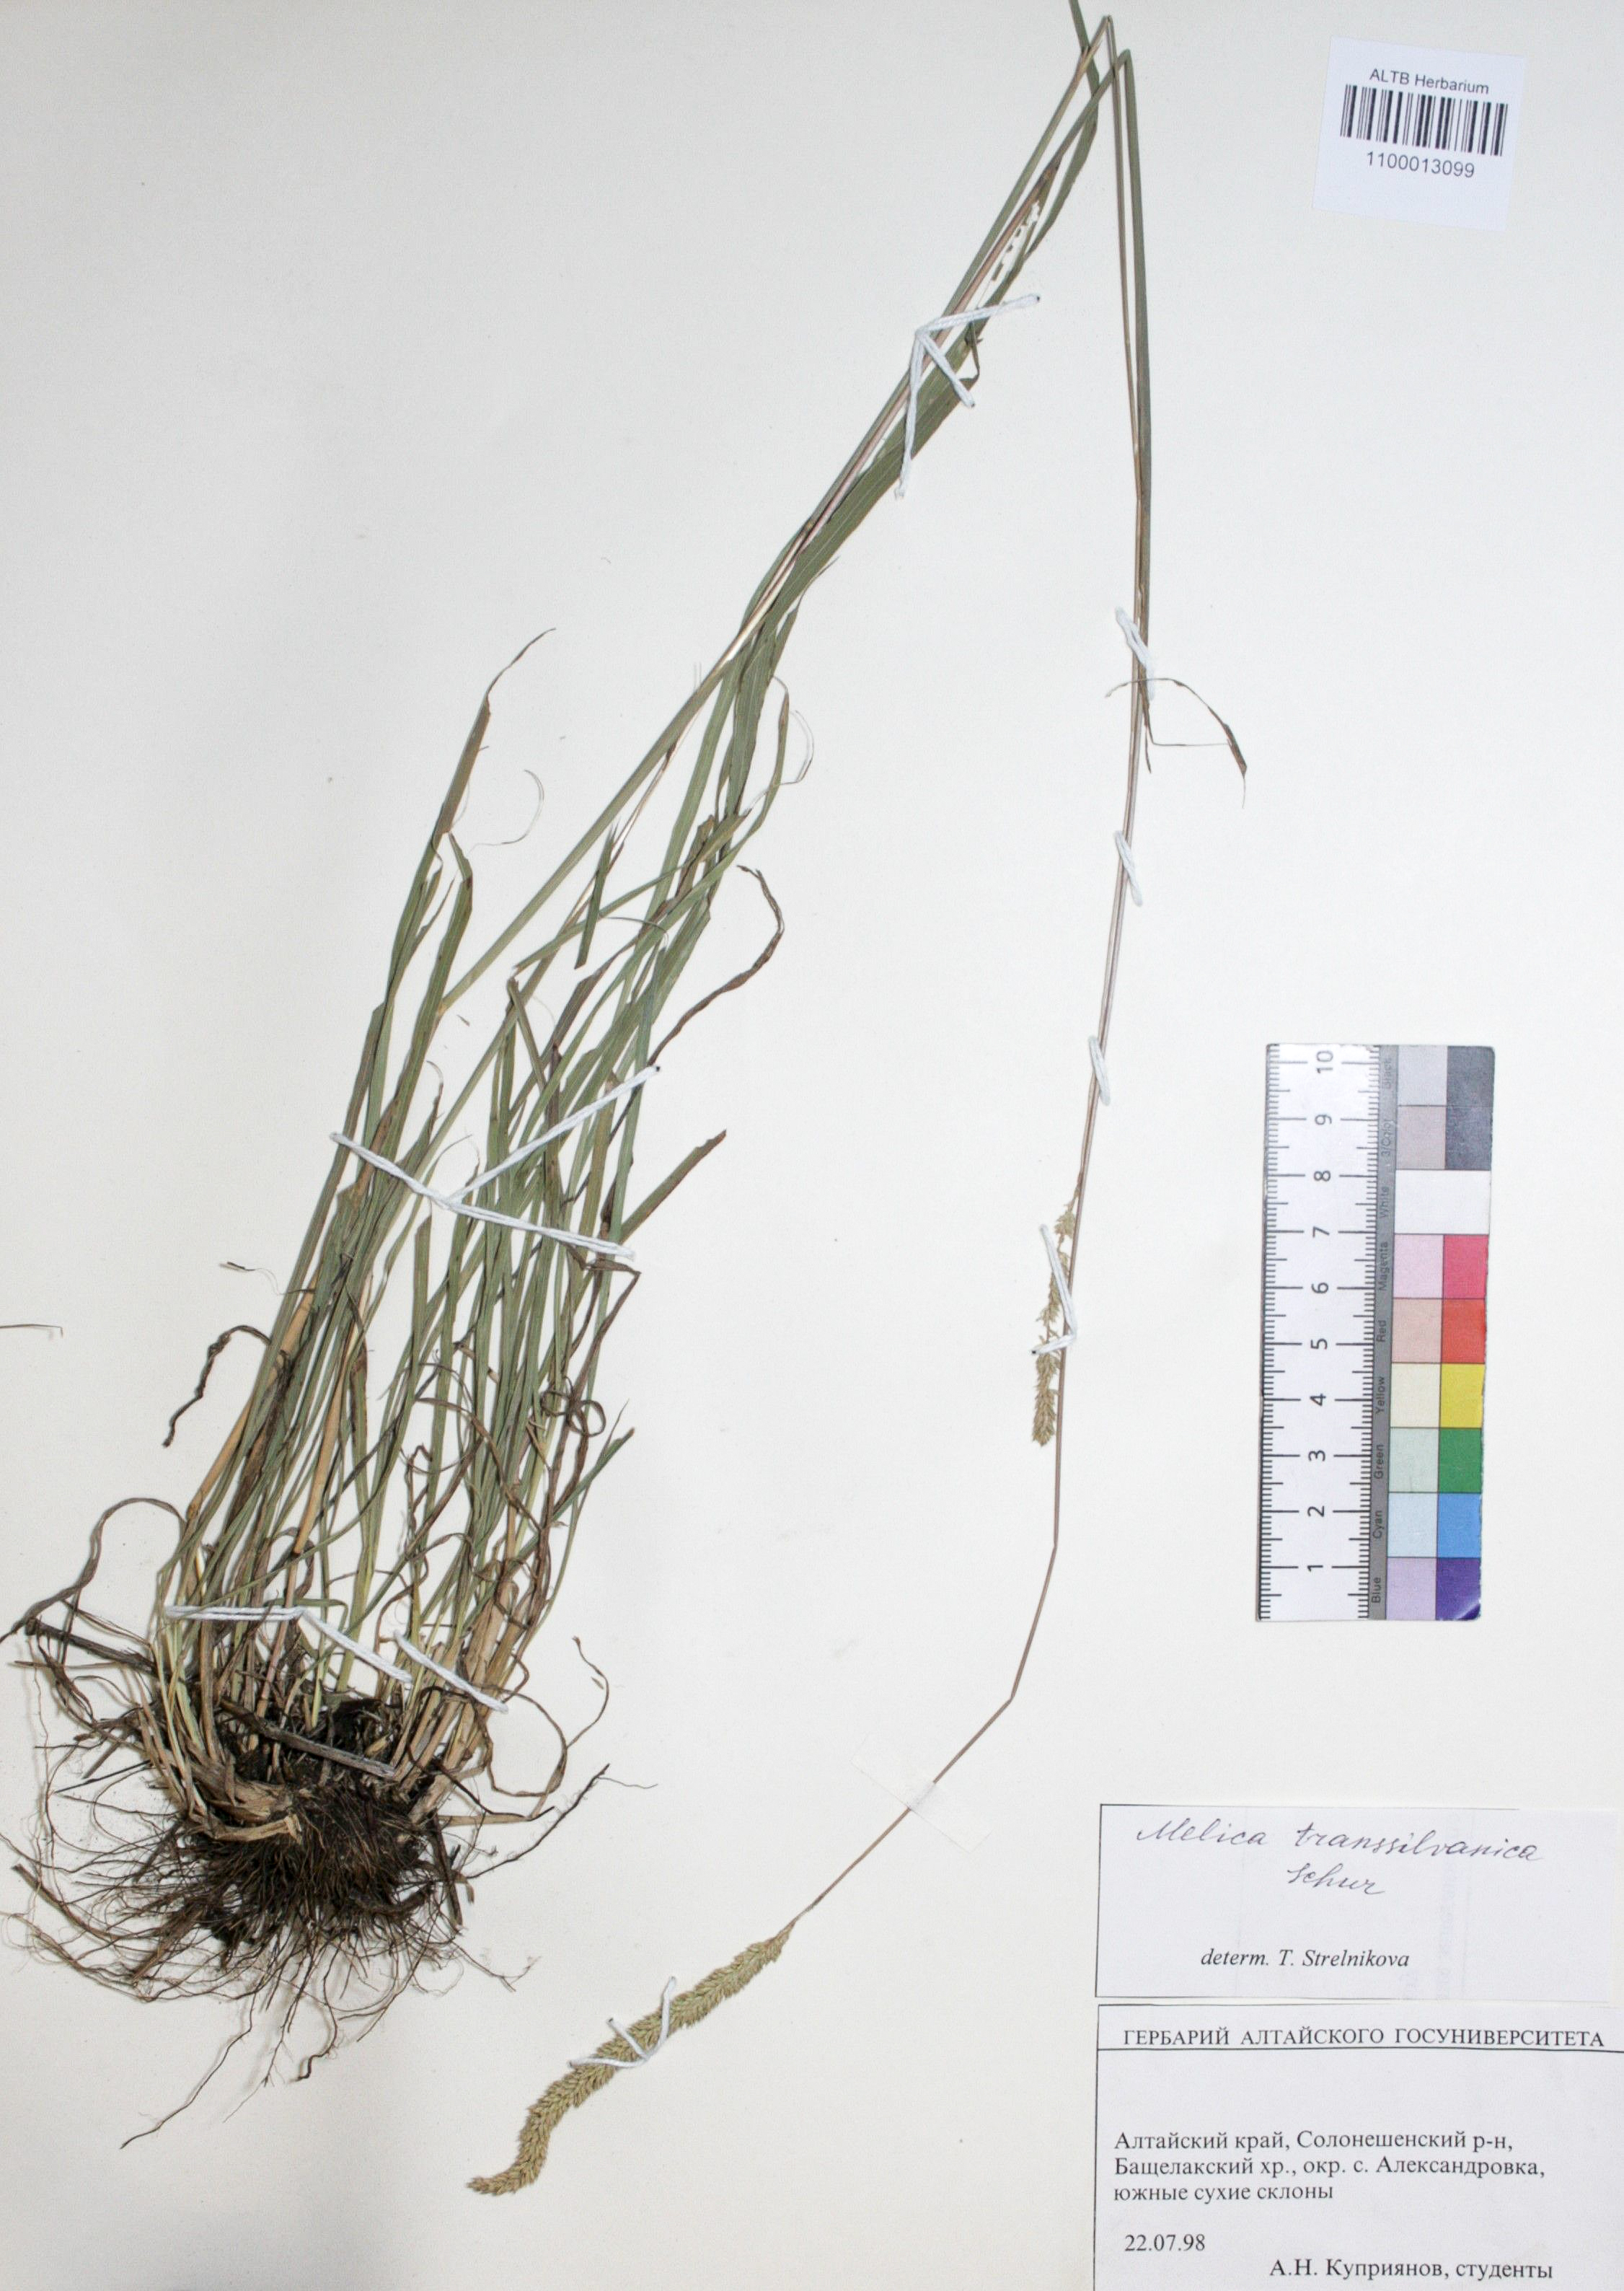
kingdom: Plantae
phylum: Tracheophyta
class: Liliopsida
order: Poales
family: Poaceae
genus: Phleum
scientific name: Phleum phleoides
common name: Purple-stem cat's-tail
